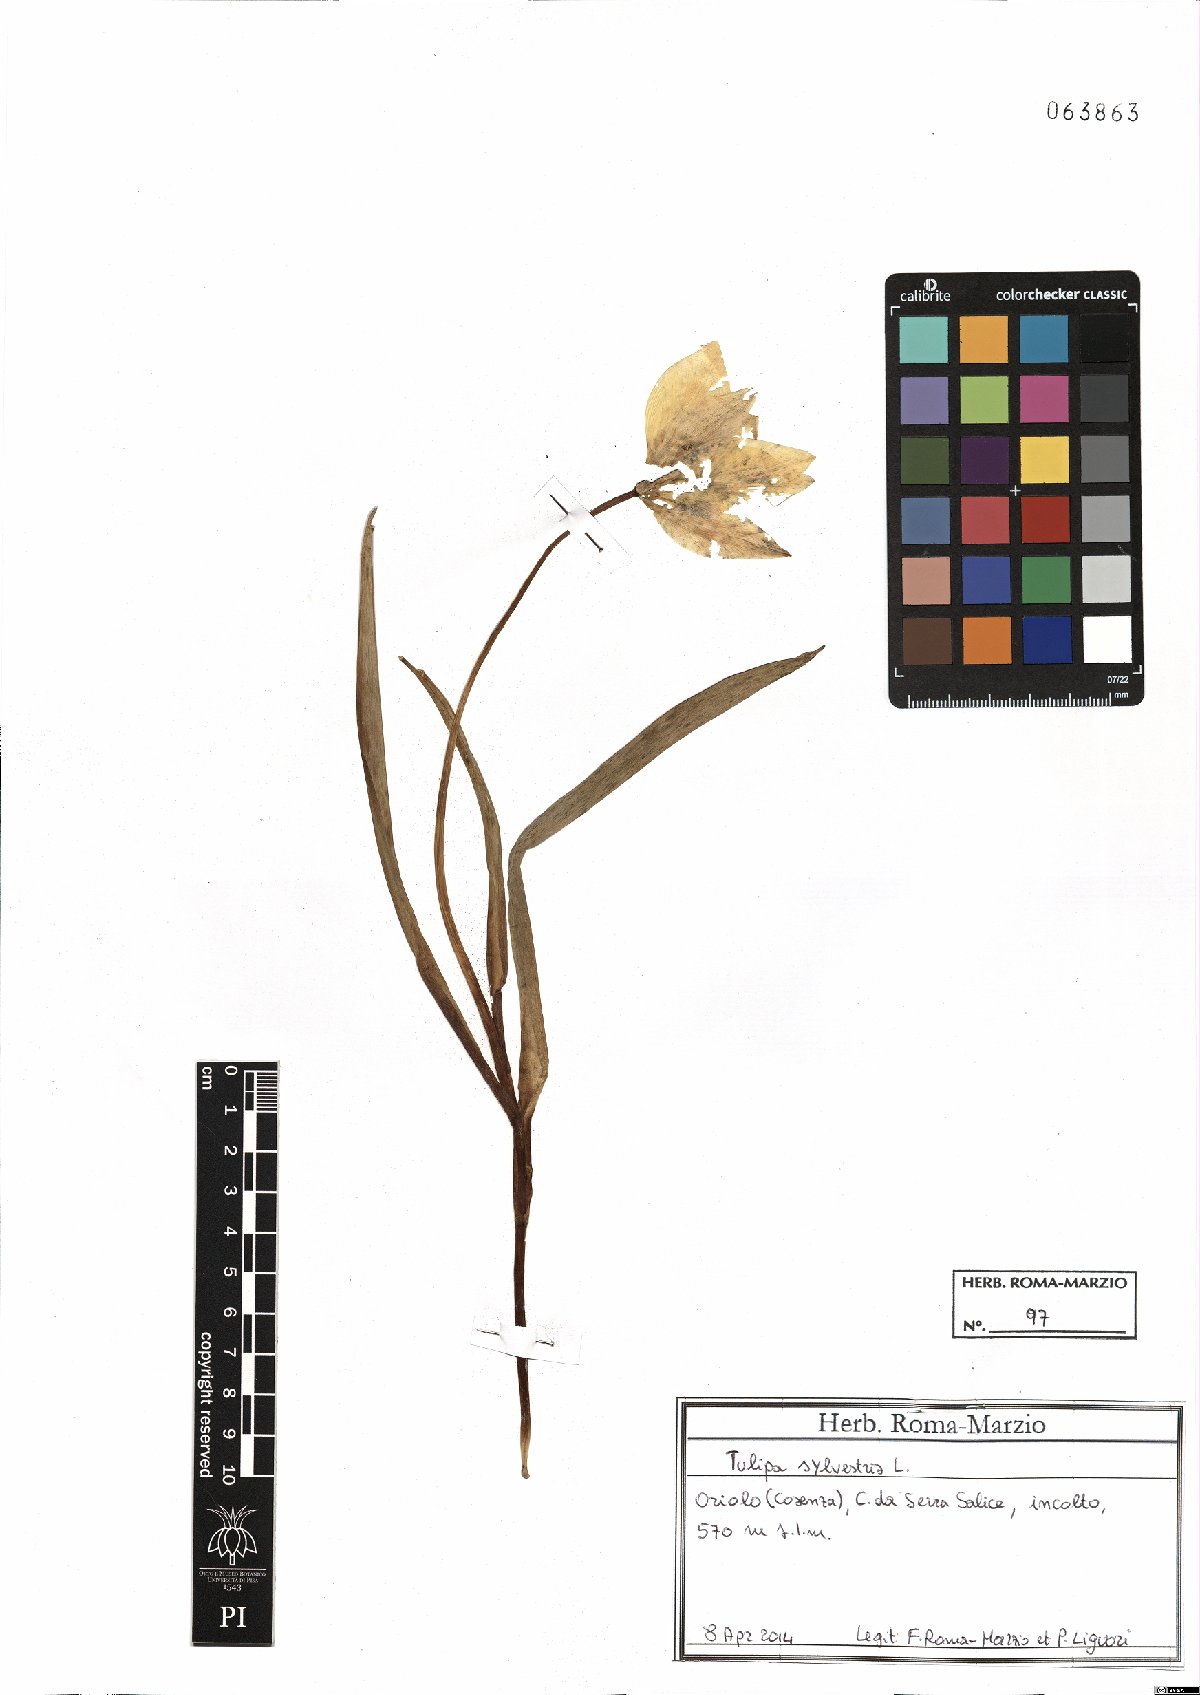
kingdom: Plantae
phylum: Tracheophyta
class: Liliopsida
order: Liliales
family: Liliaceae
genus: Tulipa
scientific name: Tulipa sylvestris
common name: Wild tulip
